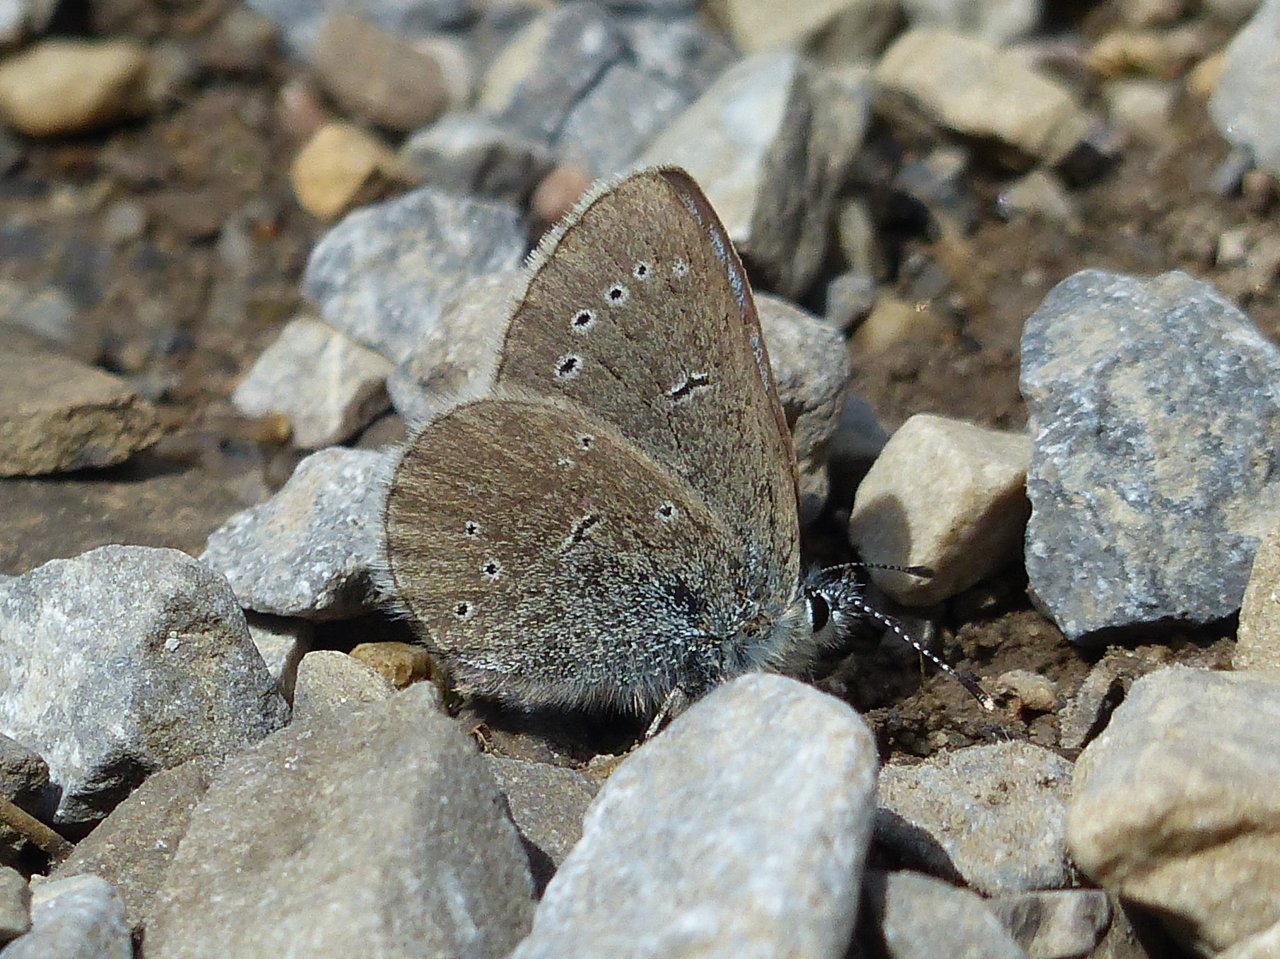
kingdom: Animalia
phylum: Arthropoda
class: Insecta
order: Lepidoptera
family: Lycaenidae
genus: Glaucopsyche
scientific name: Glaucopsyche lygdamus
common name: Silvery Blue
